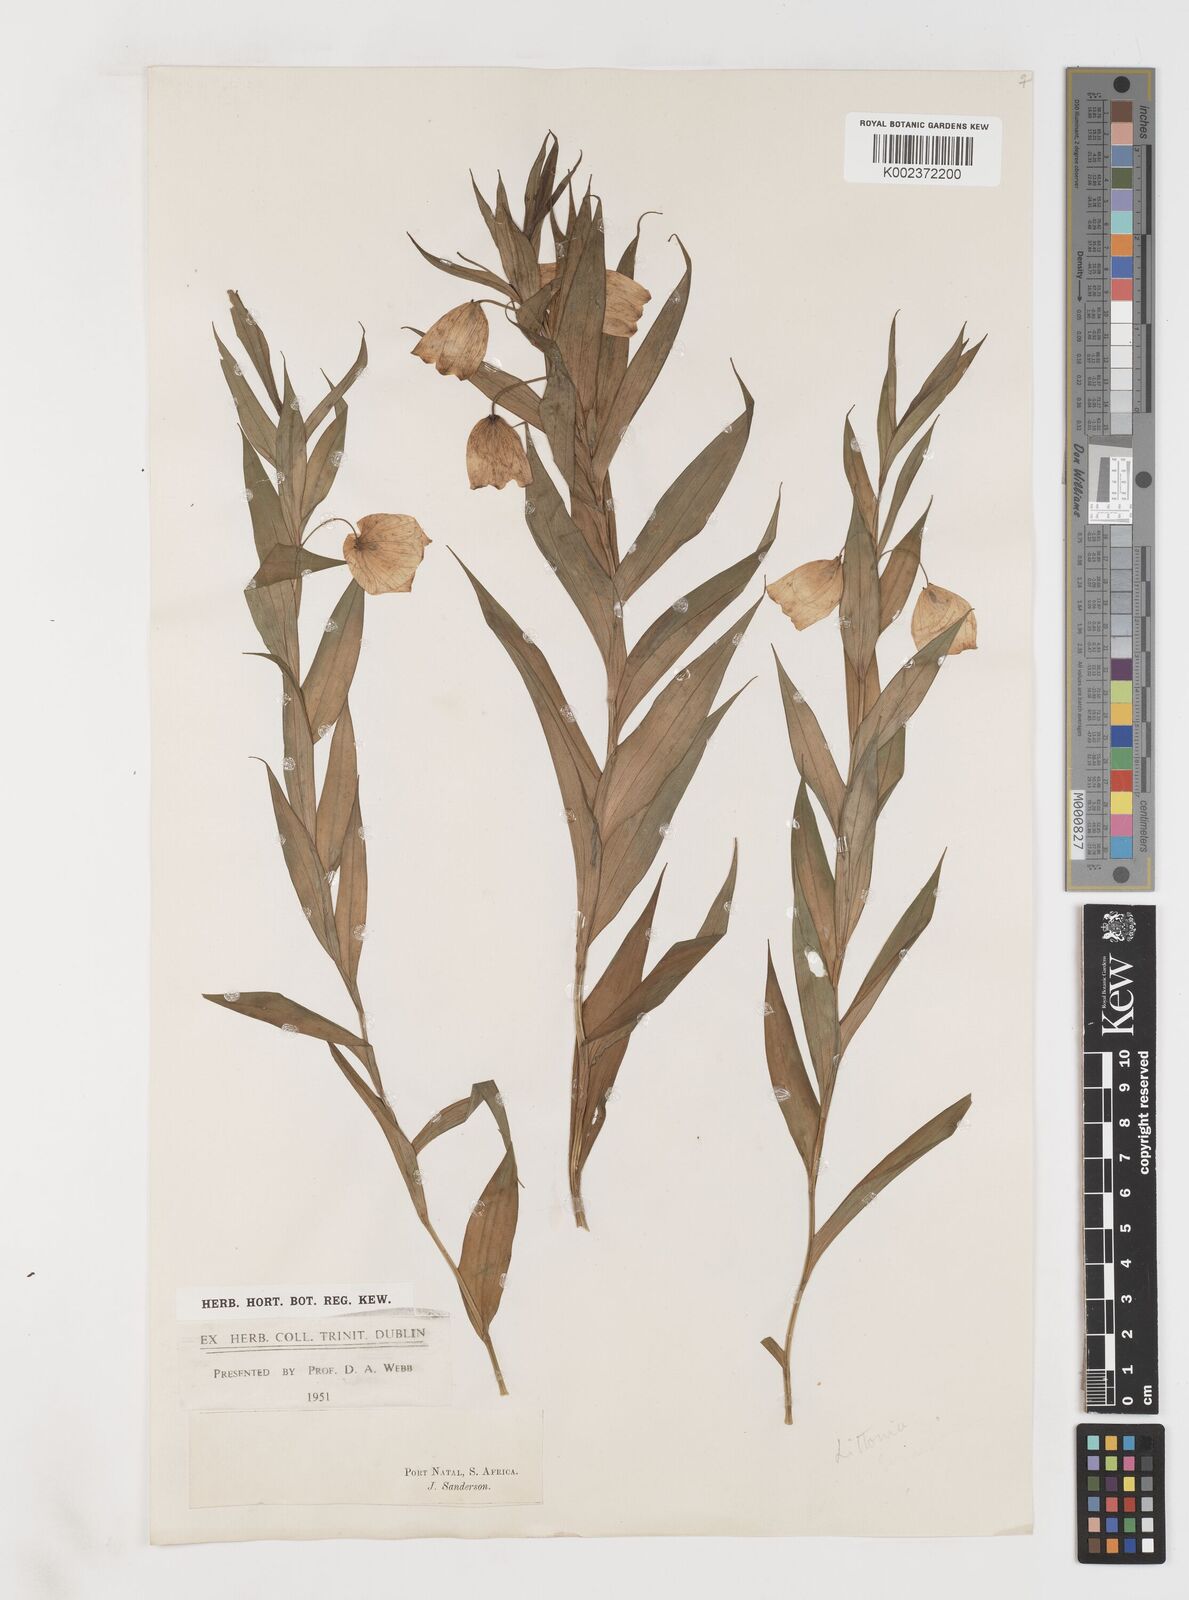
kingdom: Plantae
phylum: Tracheophyta
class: Liliopsida
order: Liliales
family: Colchicaceae
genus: Sandersonia
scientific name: Sandersonia aurantiaca
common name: Chinese-lantern-lily
